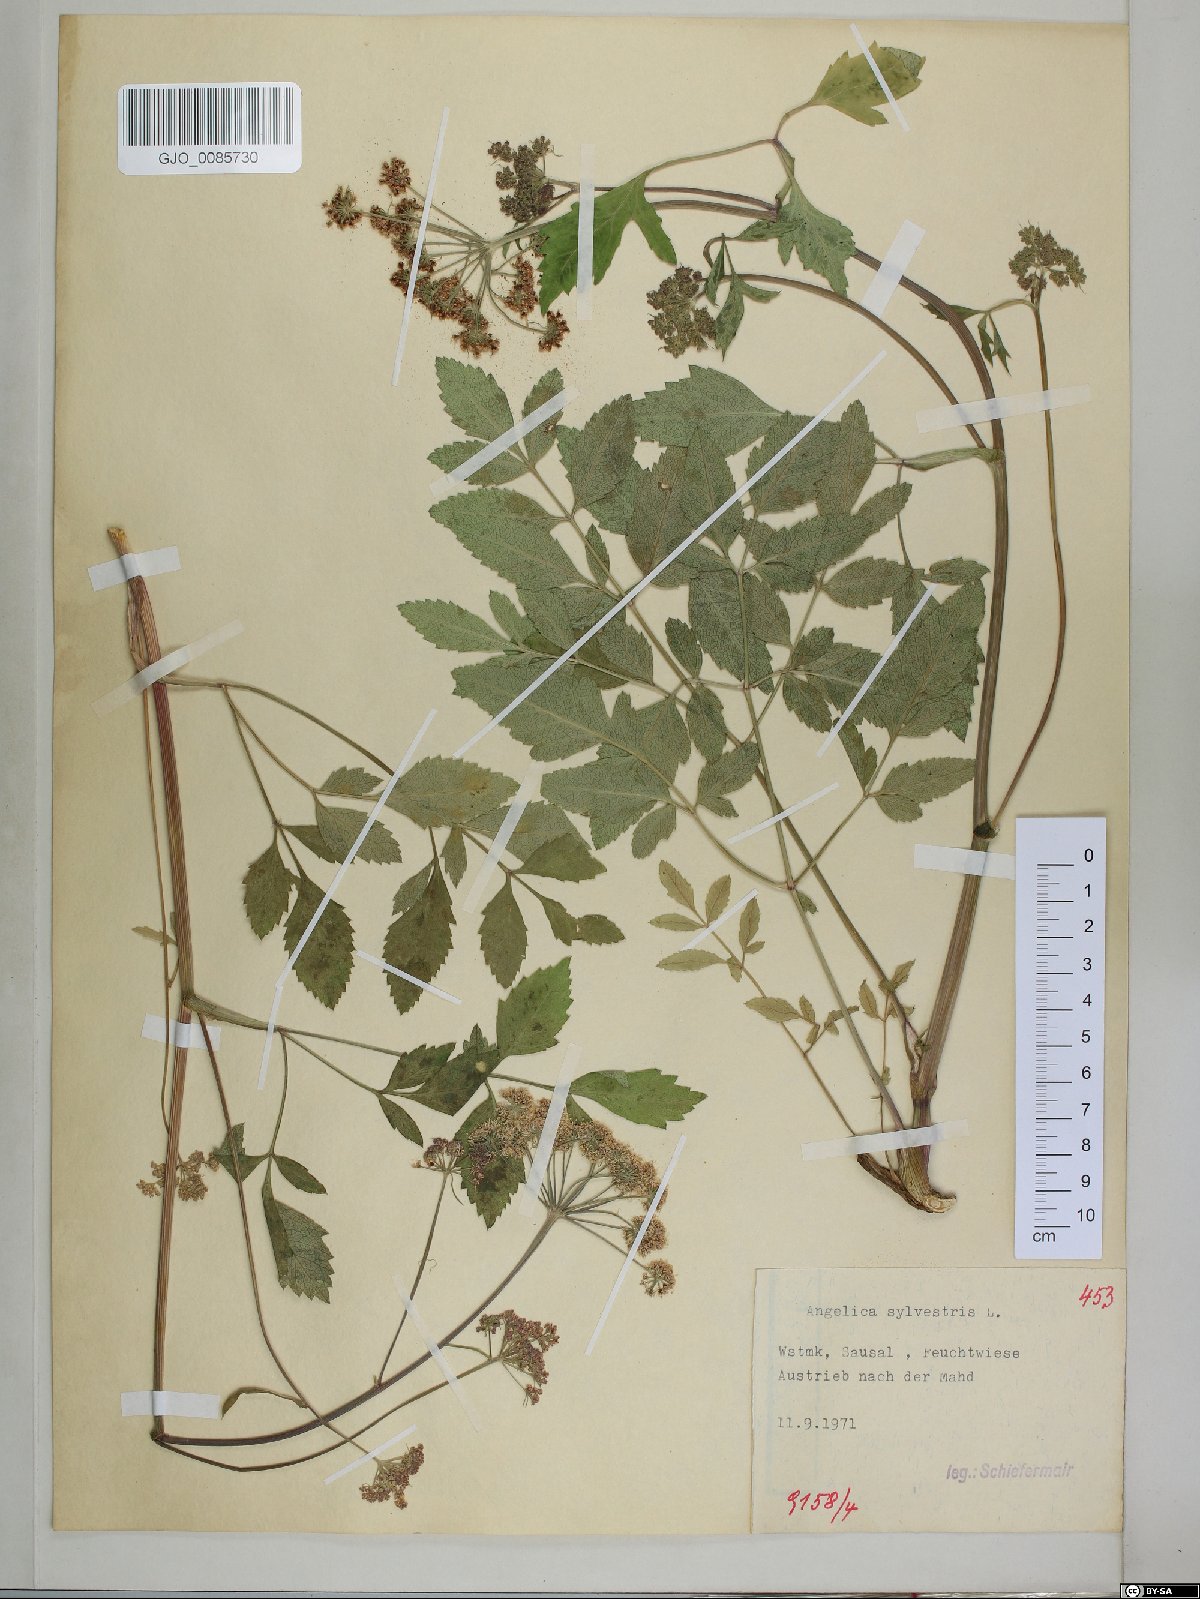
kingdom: Plantae
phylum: Tracheophyta
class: Magnoliopsida
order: Apiales
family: Apiaceae
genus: Angelica
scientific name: Angelica sylvestris
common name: Wild angelica
